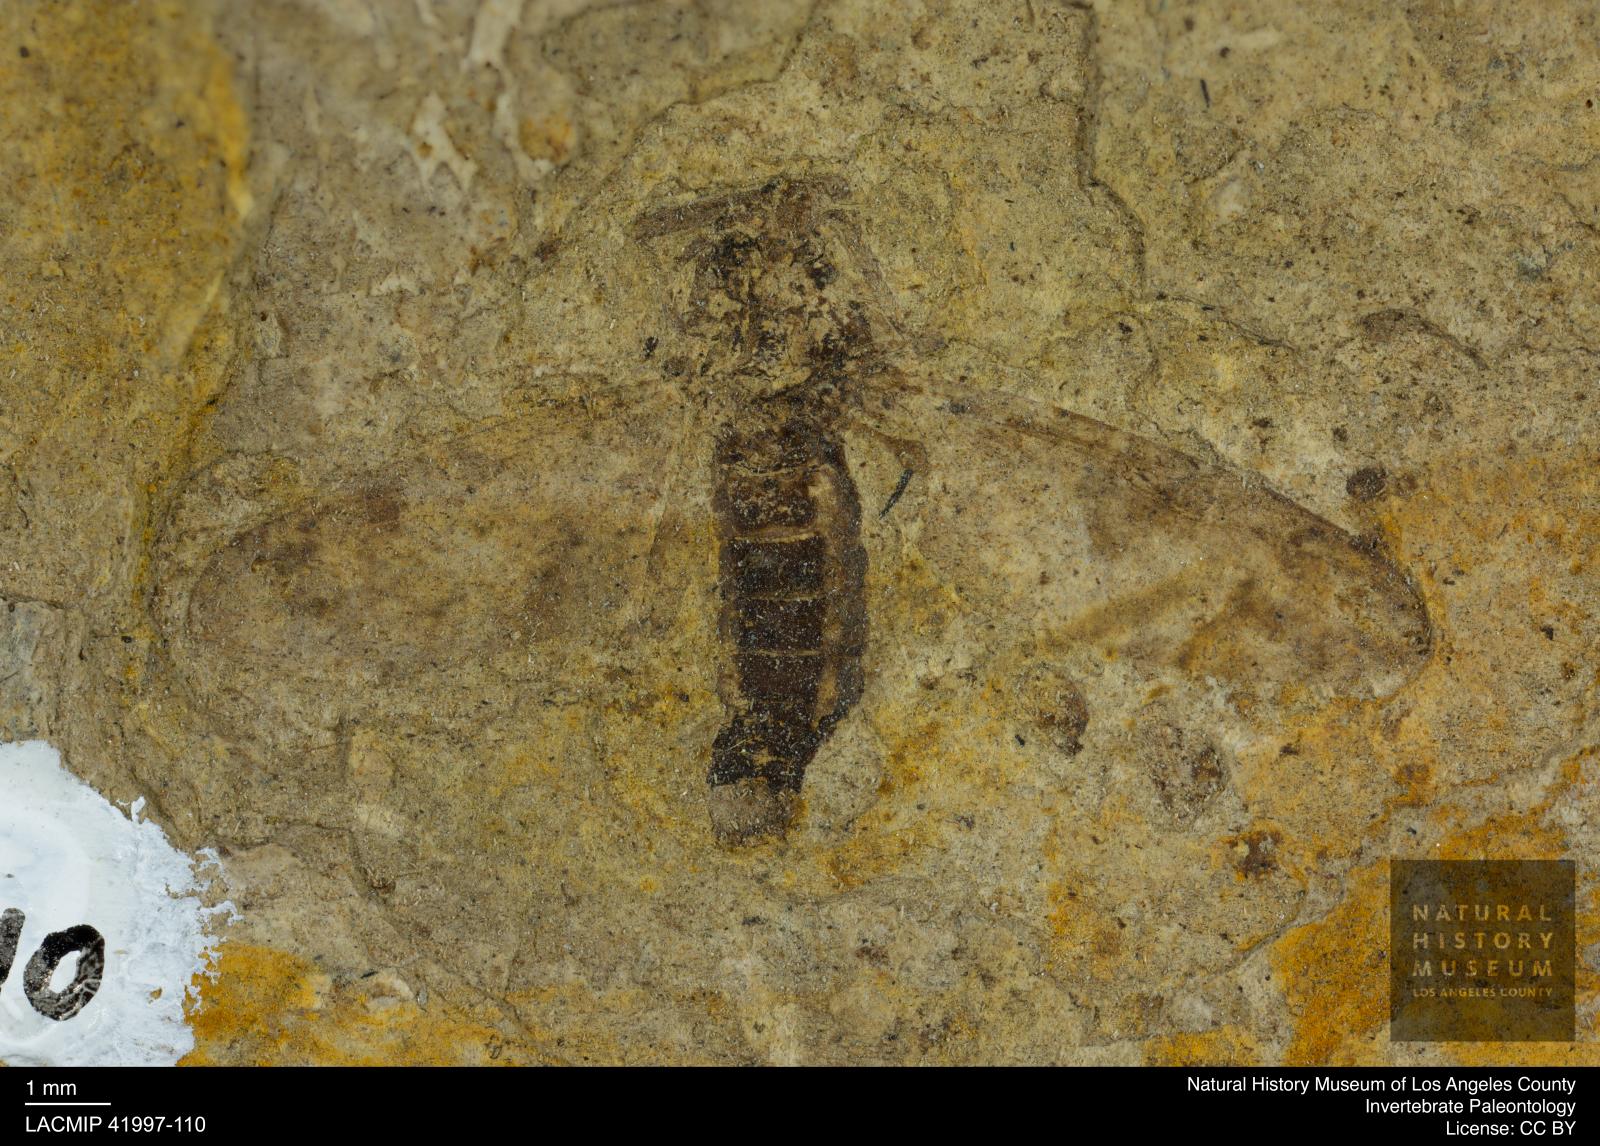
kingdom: Animalia
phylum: Arthropoda
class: Insecta
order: Diptera
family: Bibionidae
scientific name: Bibionidae
